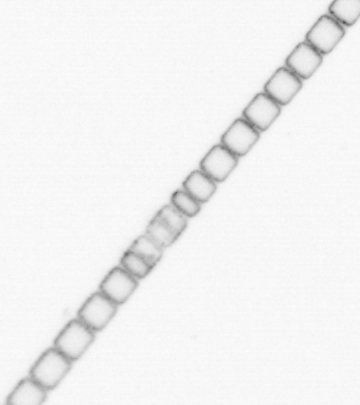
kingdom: Chromista
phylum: Ochrophyta
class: Bacillariophyceae
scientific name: Bacillariophyceae
